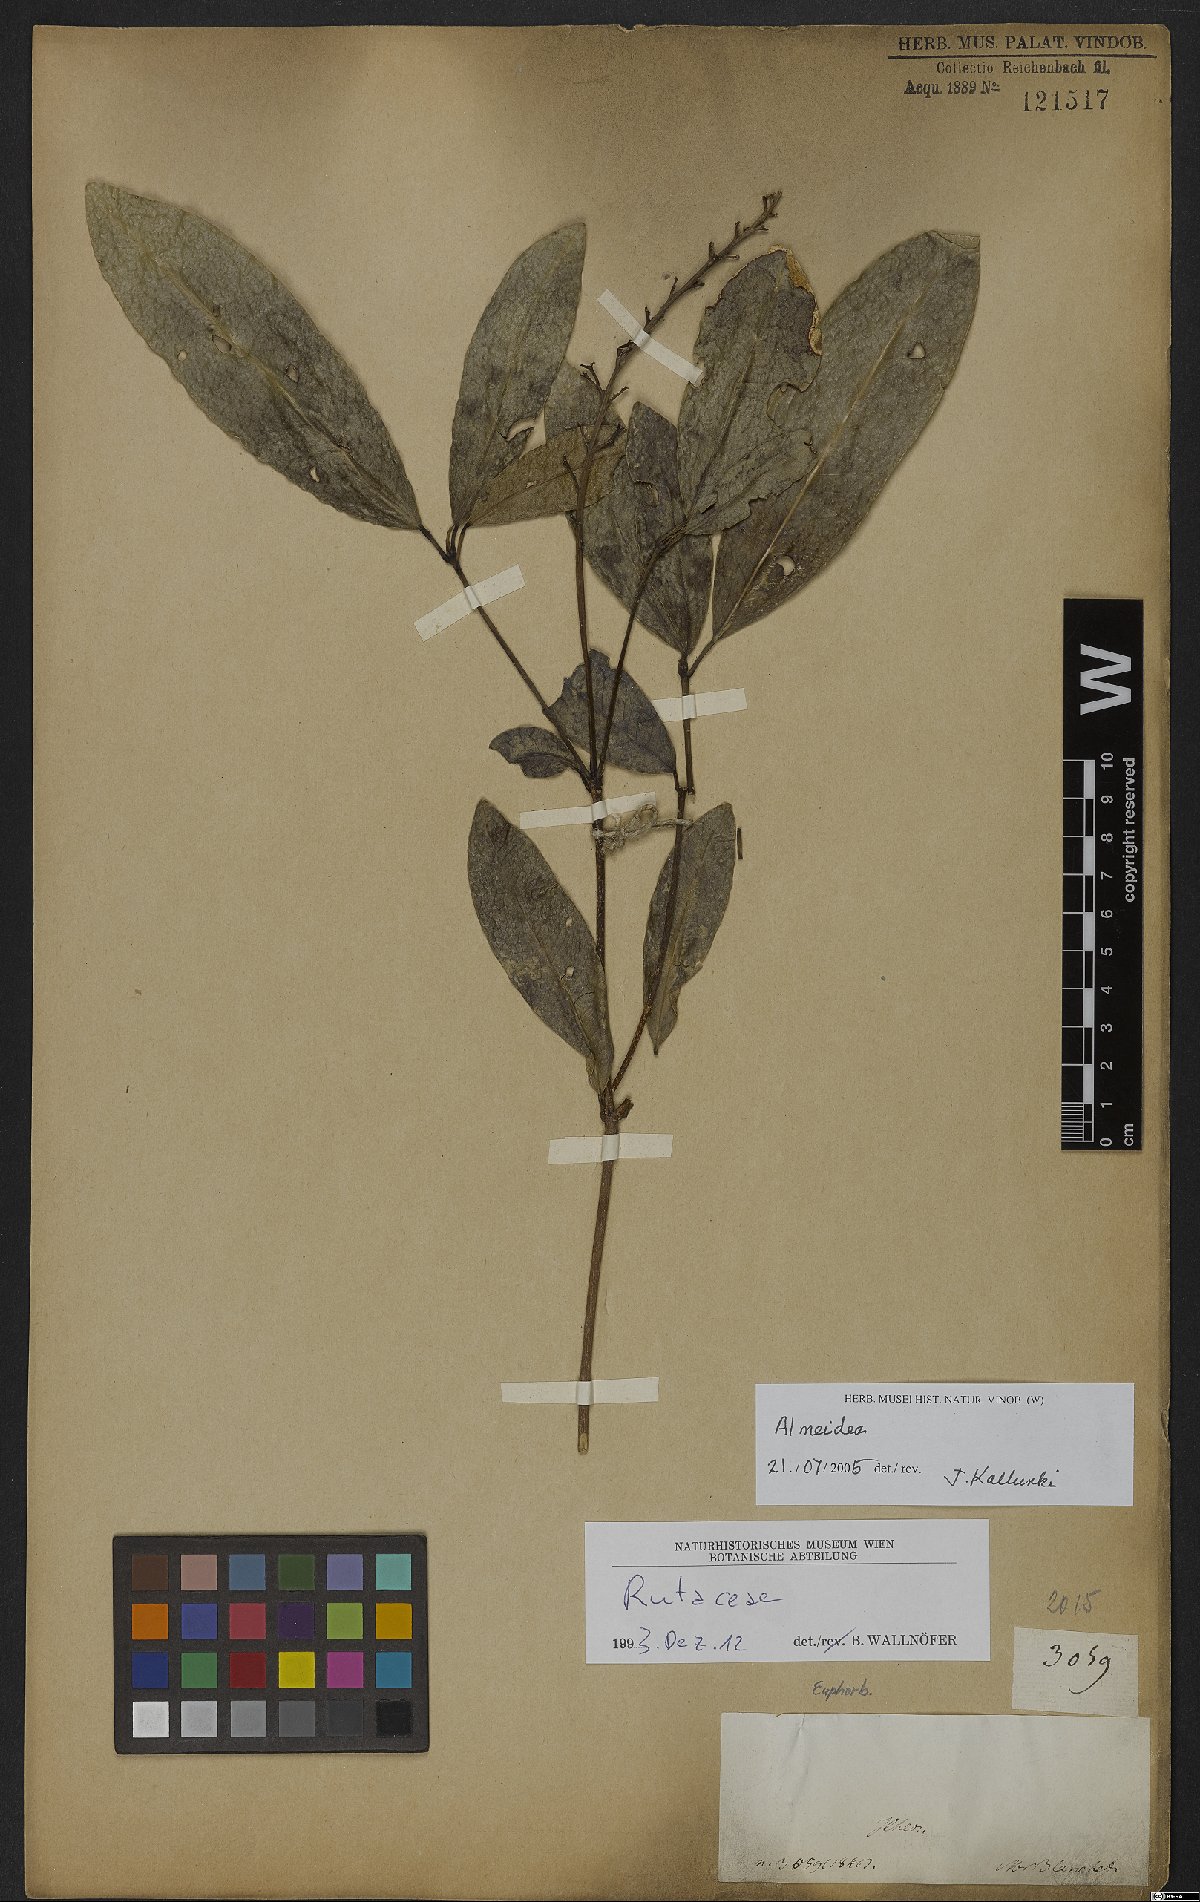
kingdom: Plantae
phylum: Tracheophyta
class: Magnoliopsida
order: Sapindales
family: Rutaceae
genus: Conchocarpus
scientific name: Conchocarpus
